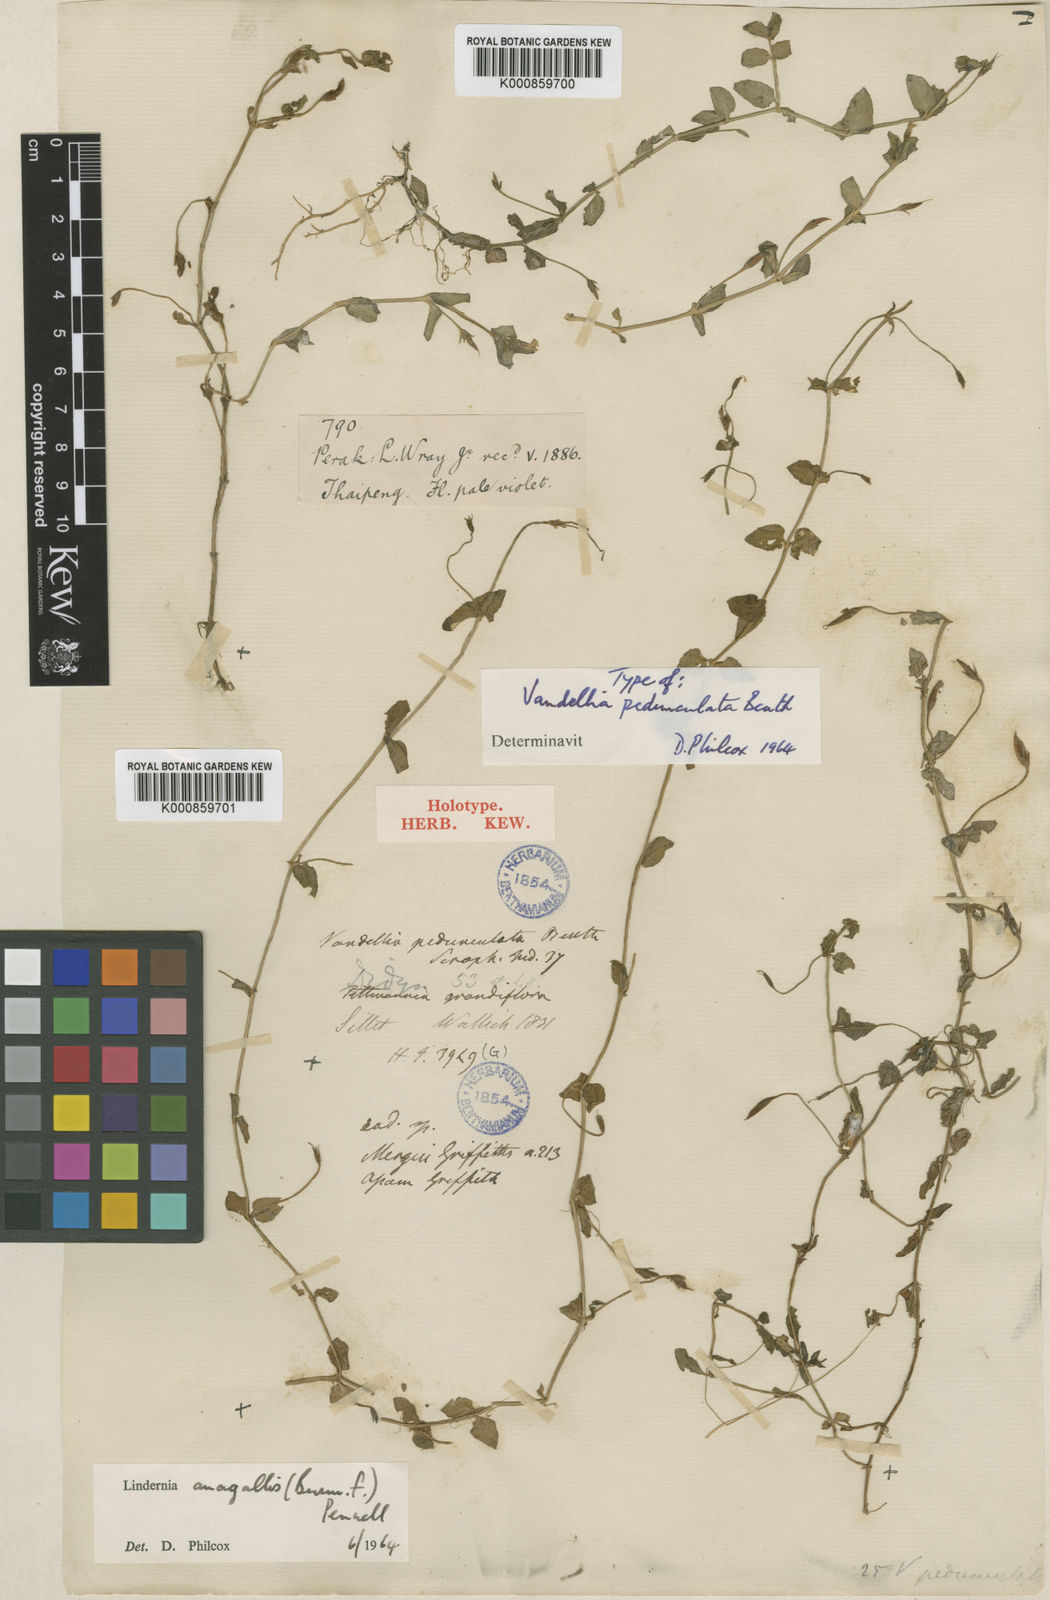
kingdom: Plantae
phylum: Tracheophyta
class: Magnoliopsida
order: Lamiales
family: Linderniaceae
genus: Torenia
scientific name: Torenia anagallis
